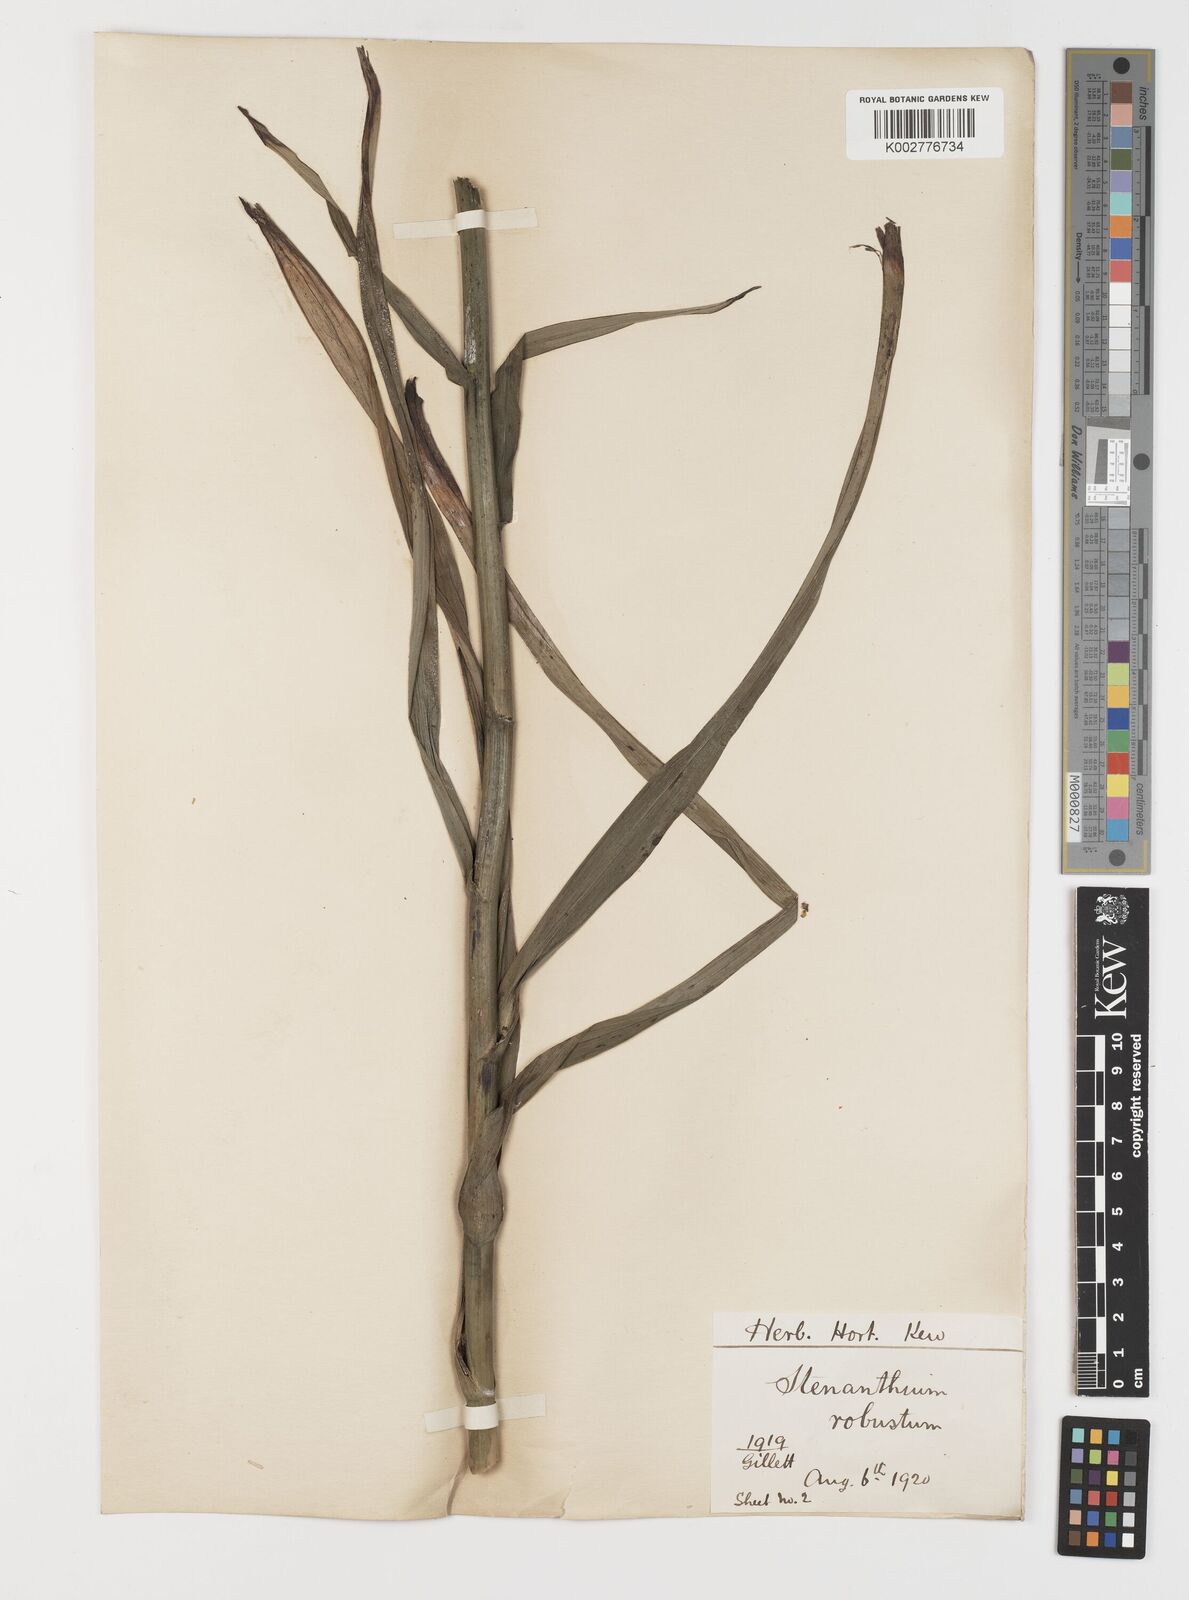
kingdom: Plantae
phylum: Tracheophyta
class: Liliopsida
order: Liliales
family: Melanthiaceae
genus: Stenanthium
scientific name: Stenanthium gramineum
